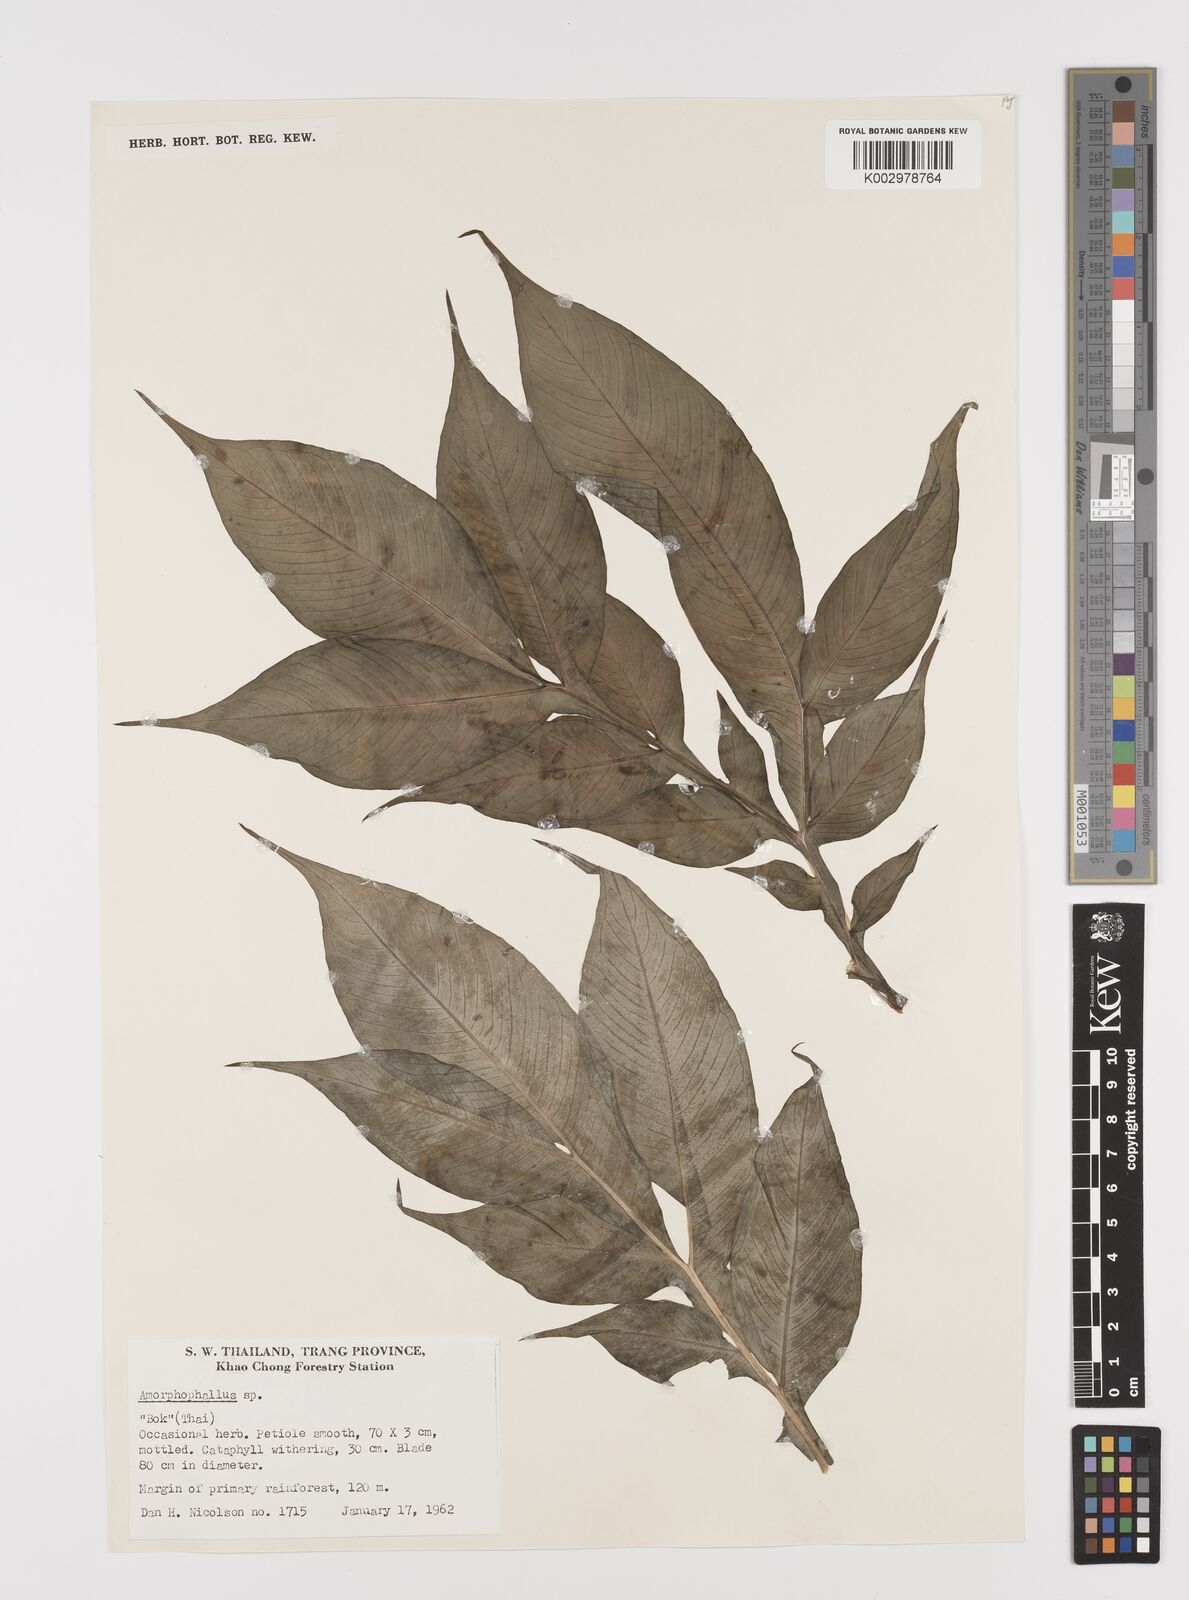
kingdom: Plantae
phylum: Tracheophyta
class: Liliopsida
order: Alismatales
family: Araceae
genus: Amorphophallus
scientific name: Amorphophallus
